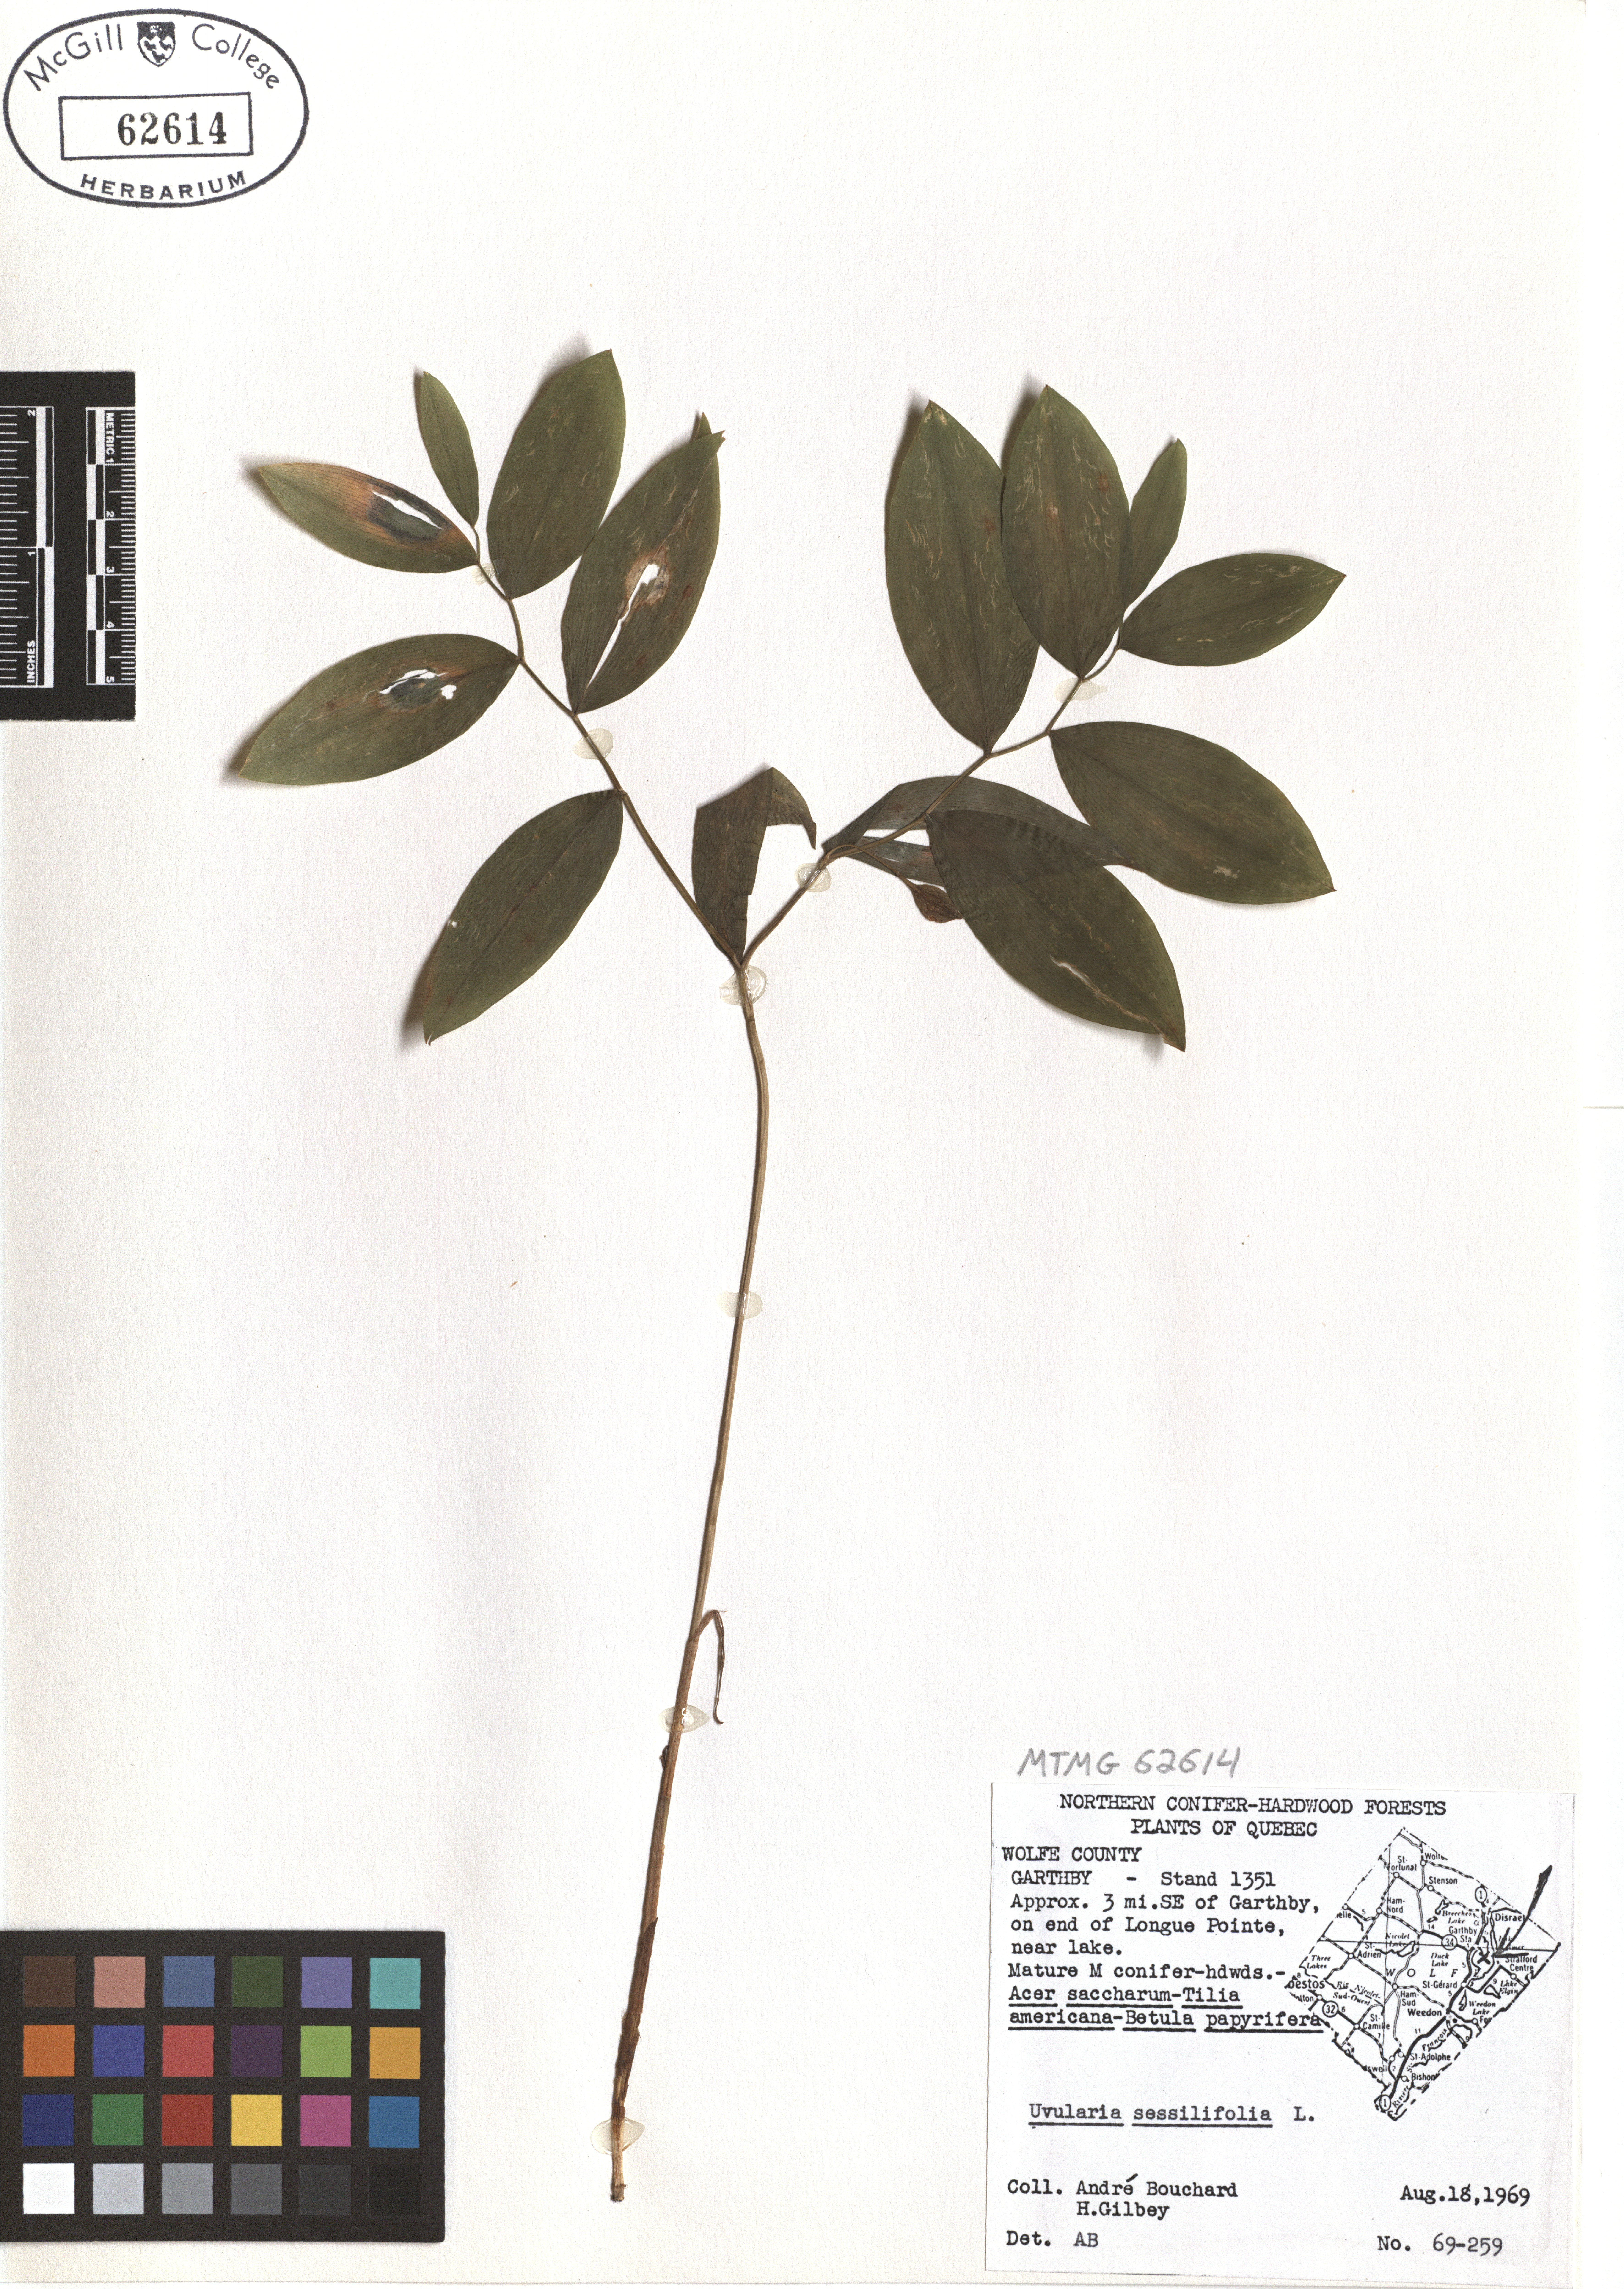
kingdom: Plantae
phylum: Tracheophyta
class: Liliopsida
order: Liliales
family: Colchicaceae
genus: Uvularia
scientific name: Uvularia sessilifolia
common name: Straw-lily
